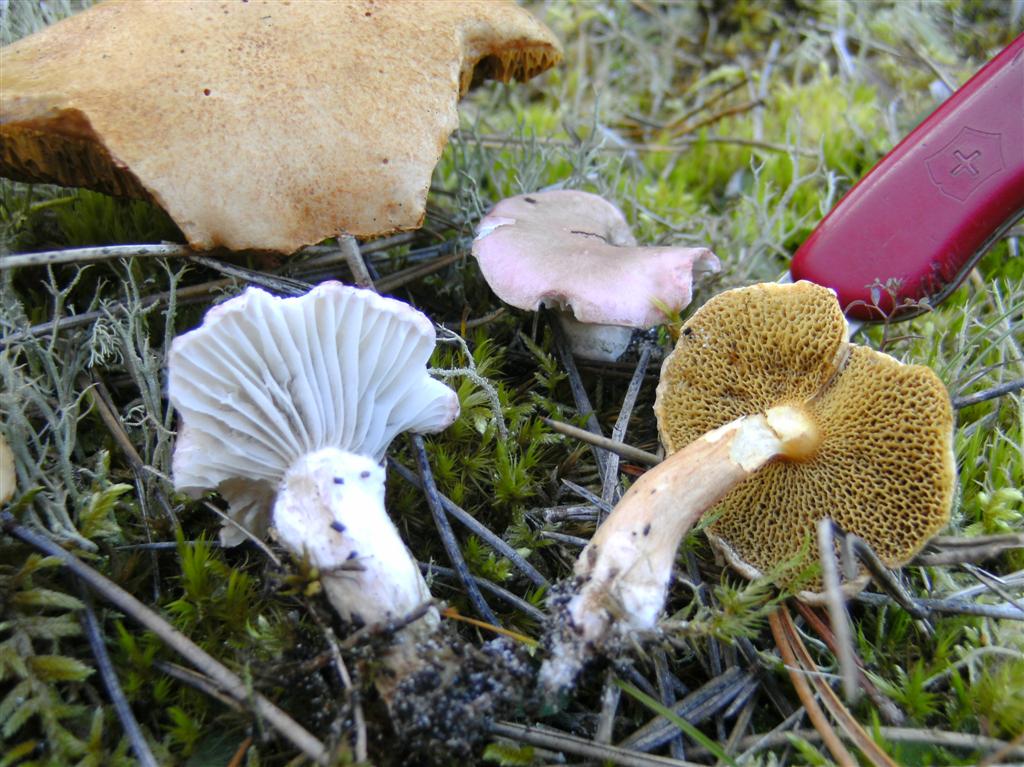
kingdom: Fungi
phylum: Basidiomycota
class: Agaricomycetes
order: Boletales
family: Gomphidiaceae
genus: Gomphidius
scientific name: Gomphidius roseus
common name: rosenrød slimslør
